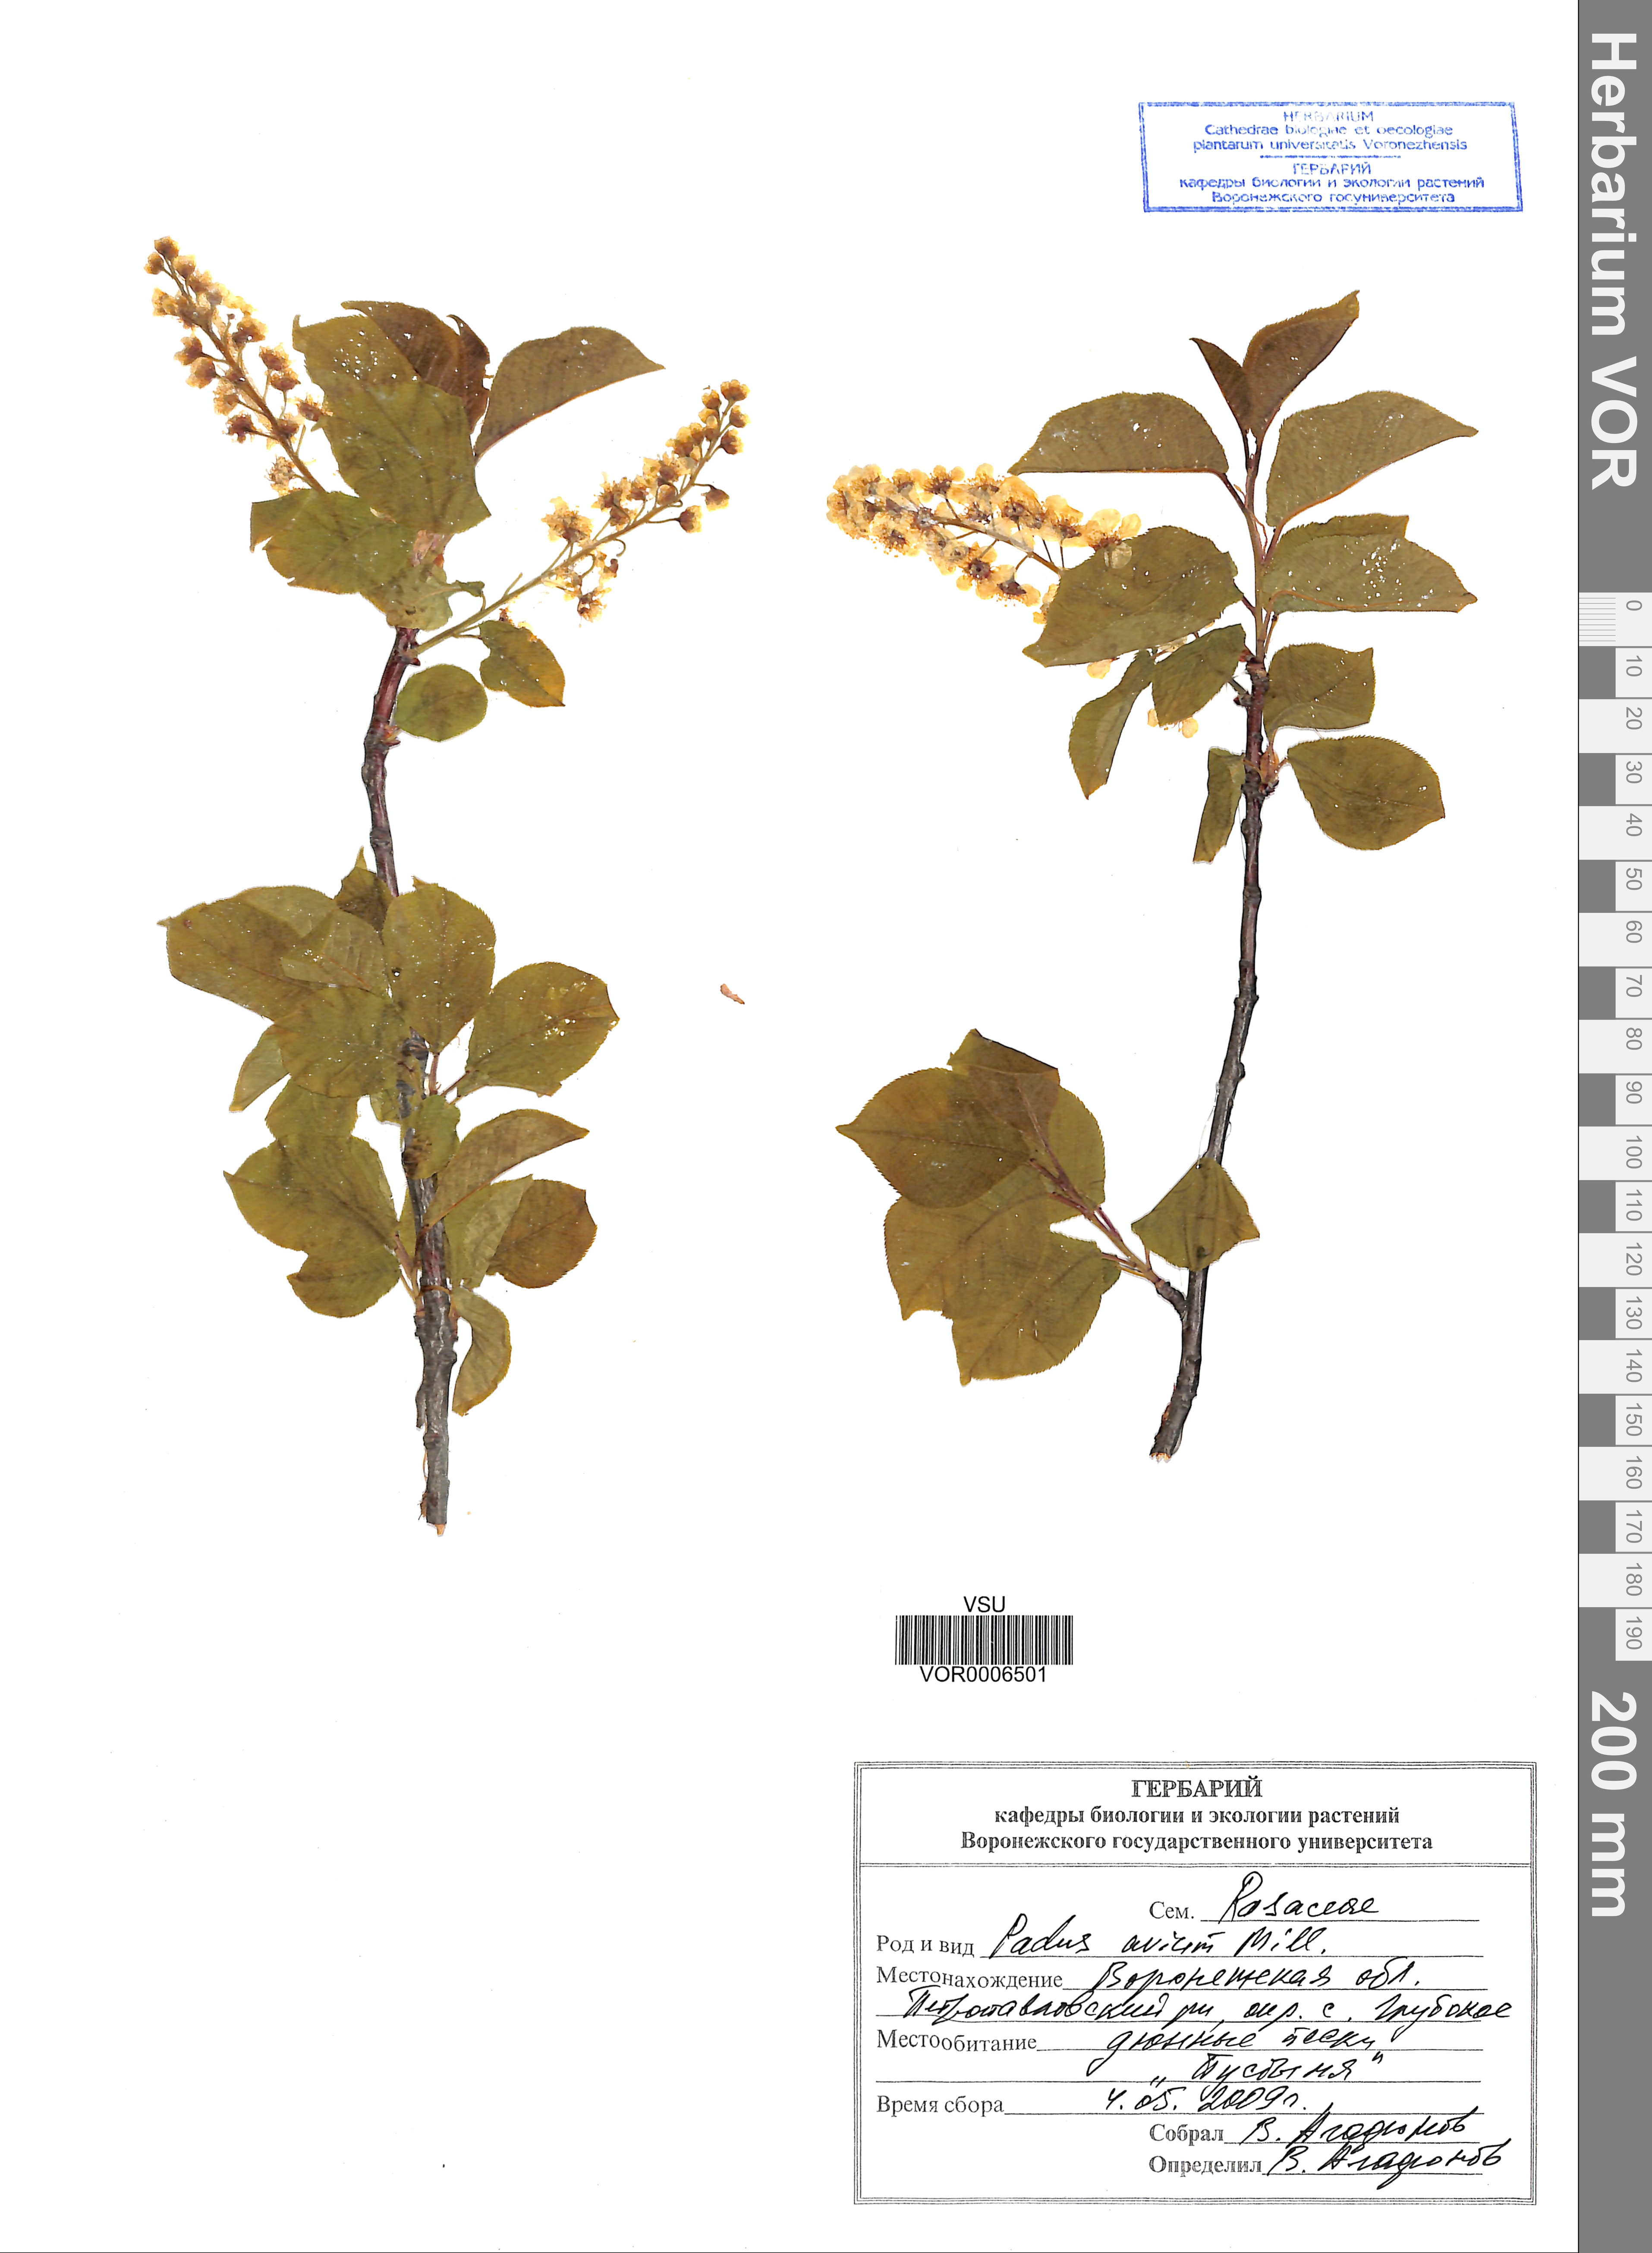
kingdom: Plantae
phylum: Tracheophyta
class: Magnoliopsida
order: Rosales
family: Rosaceae
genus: Prunus
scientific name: Prunus padus
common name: Bird cherry
